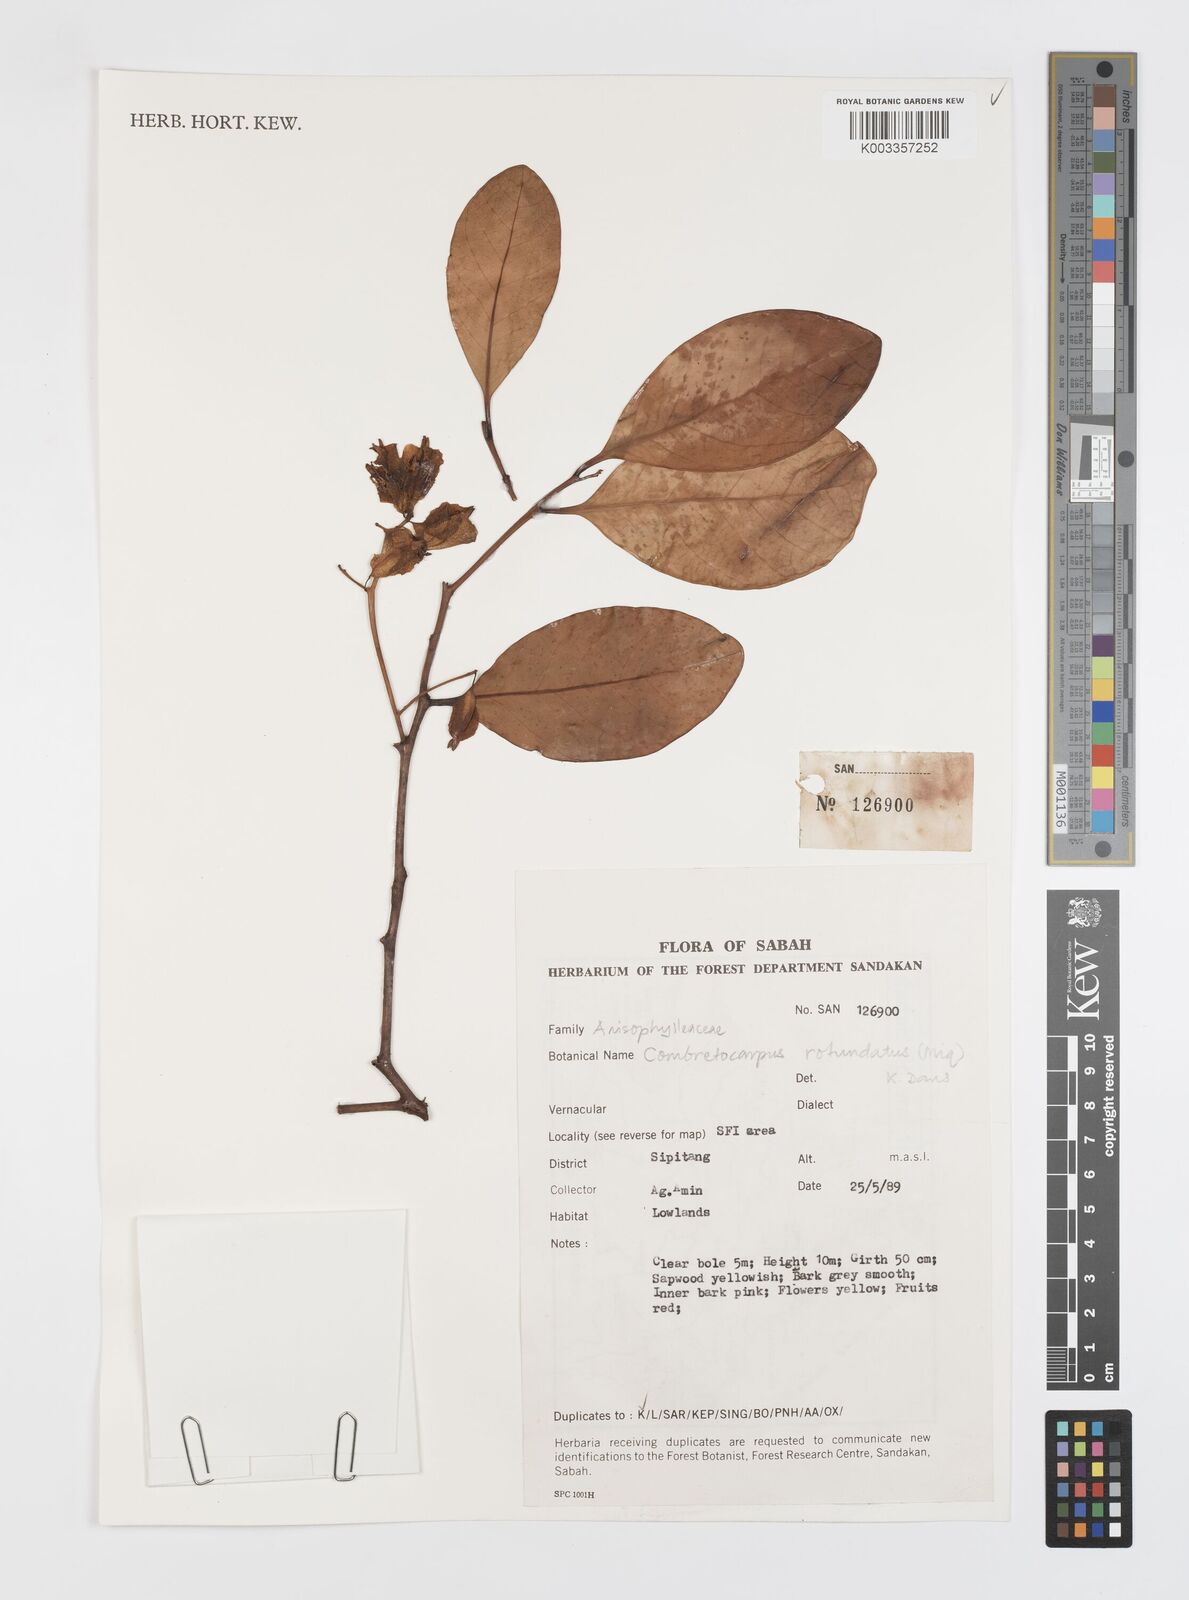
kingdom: Plantae
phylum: Tracheophyta
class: Magnoliopsida
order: Cucurbitales
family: Anisophylleaceae
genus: Combretocarpus
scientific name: Combretocarpus rotundatus
